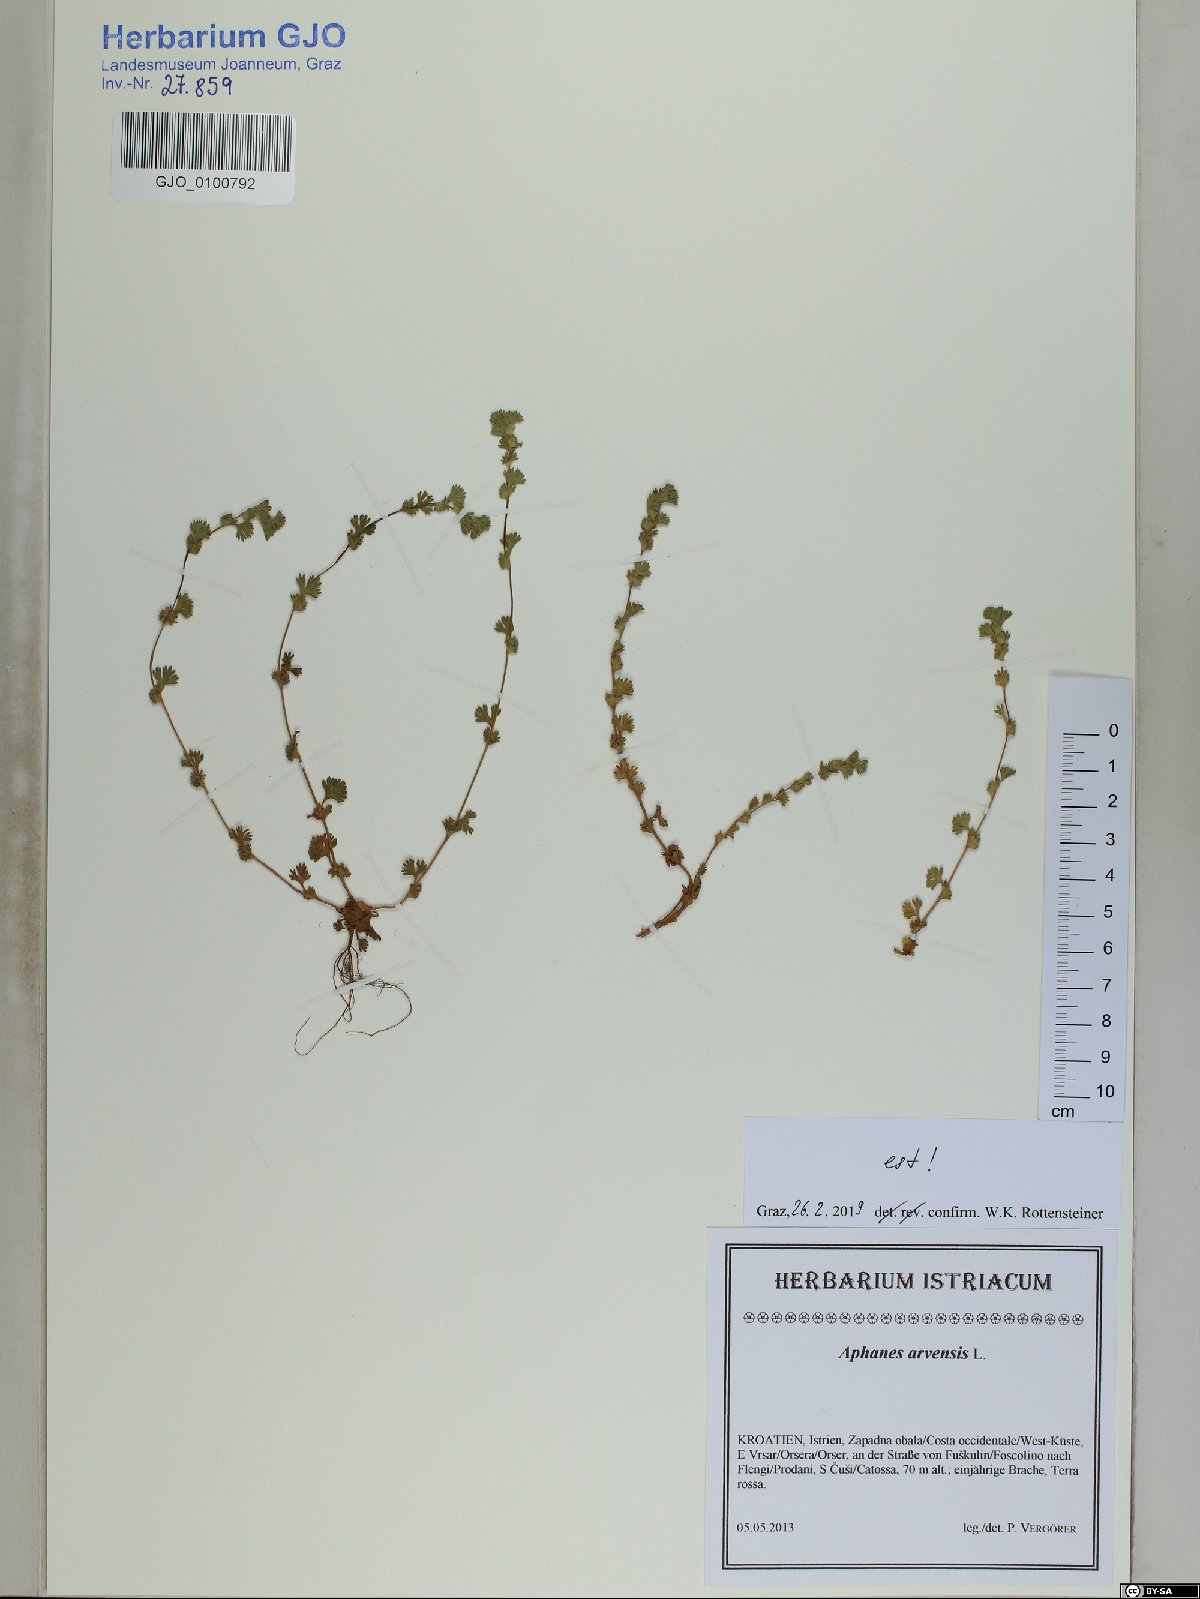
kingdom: Plantae
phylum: Tracheophyta
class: Magnoliopsida
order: Rosales
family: Rosaceae
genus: Aphanes
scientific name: Aphanes arvensis
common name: Parsley-piert
